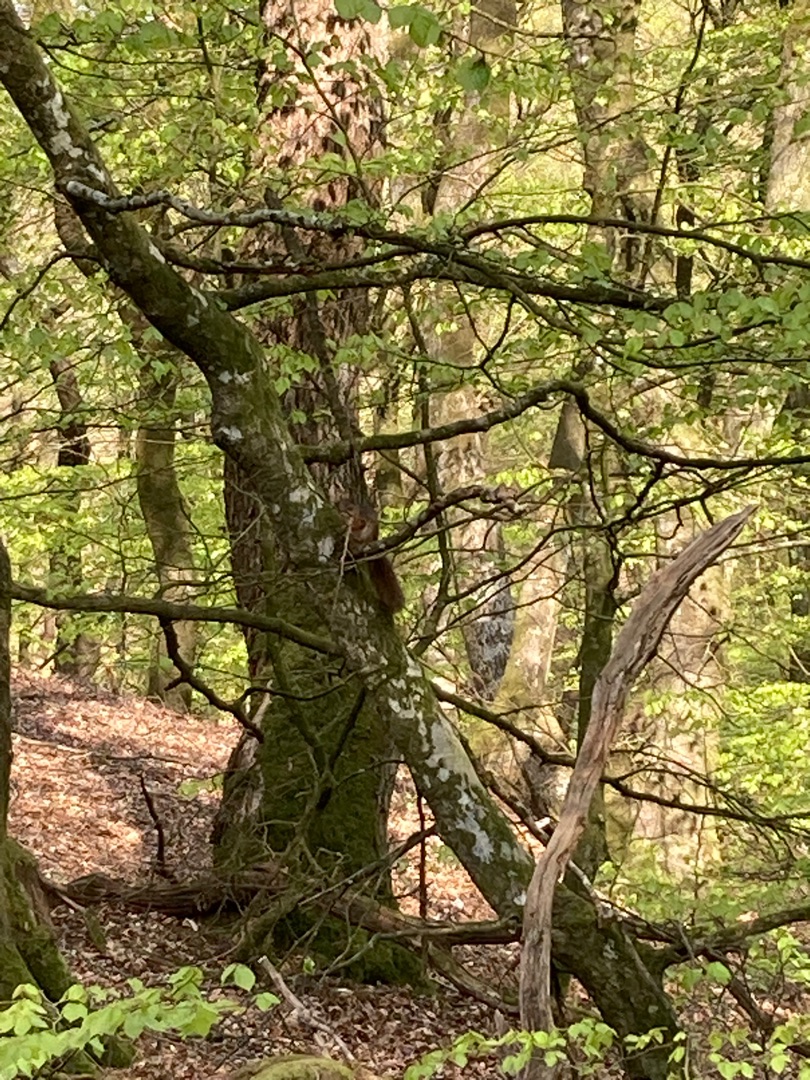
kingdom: Animalia
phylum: Chordata
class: Mammalia
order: Rodentia
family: Sciuridae
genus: Sciurus
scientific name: Sciurus vulgaris
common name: Egern
